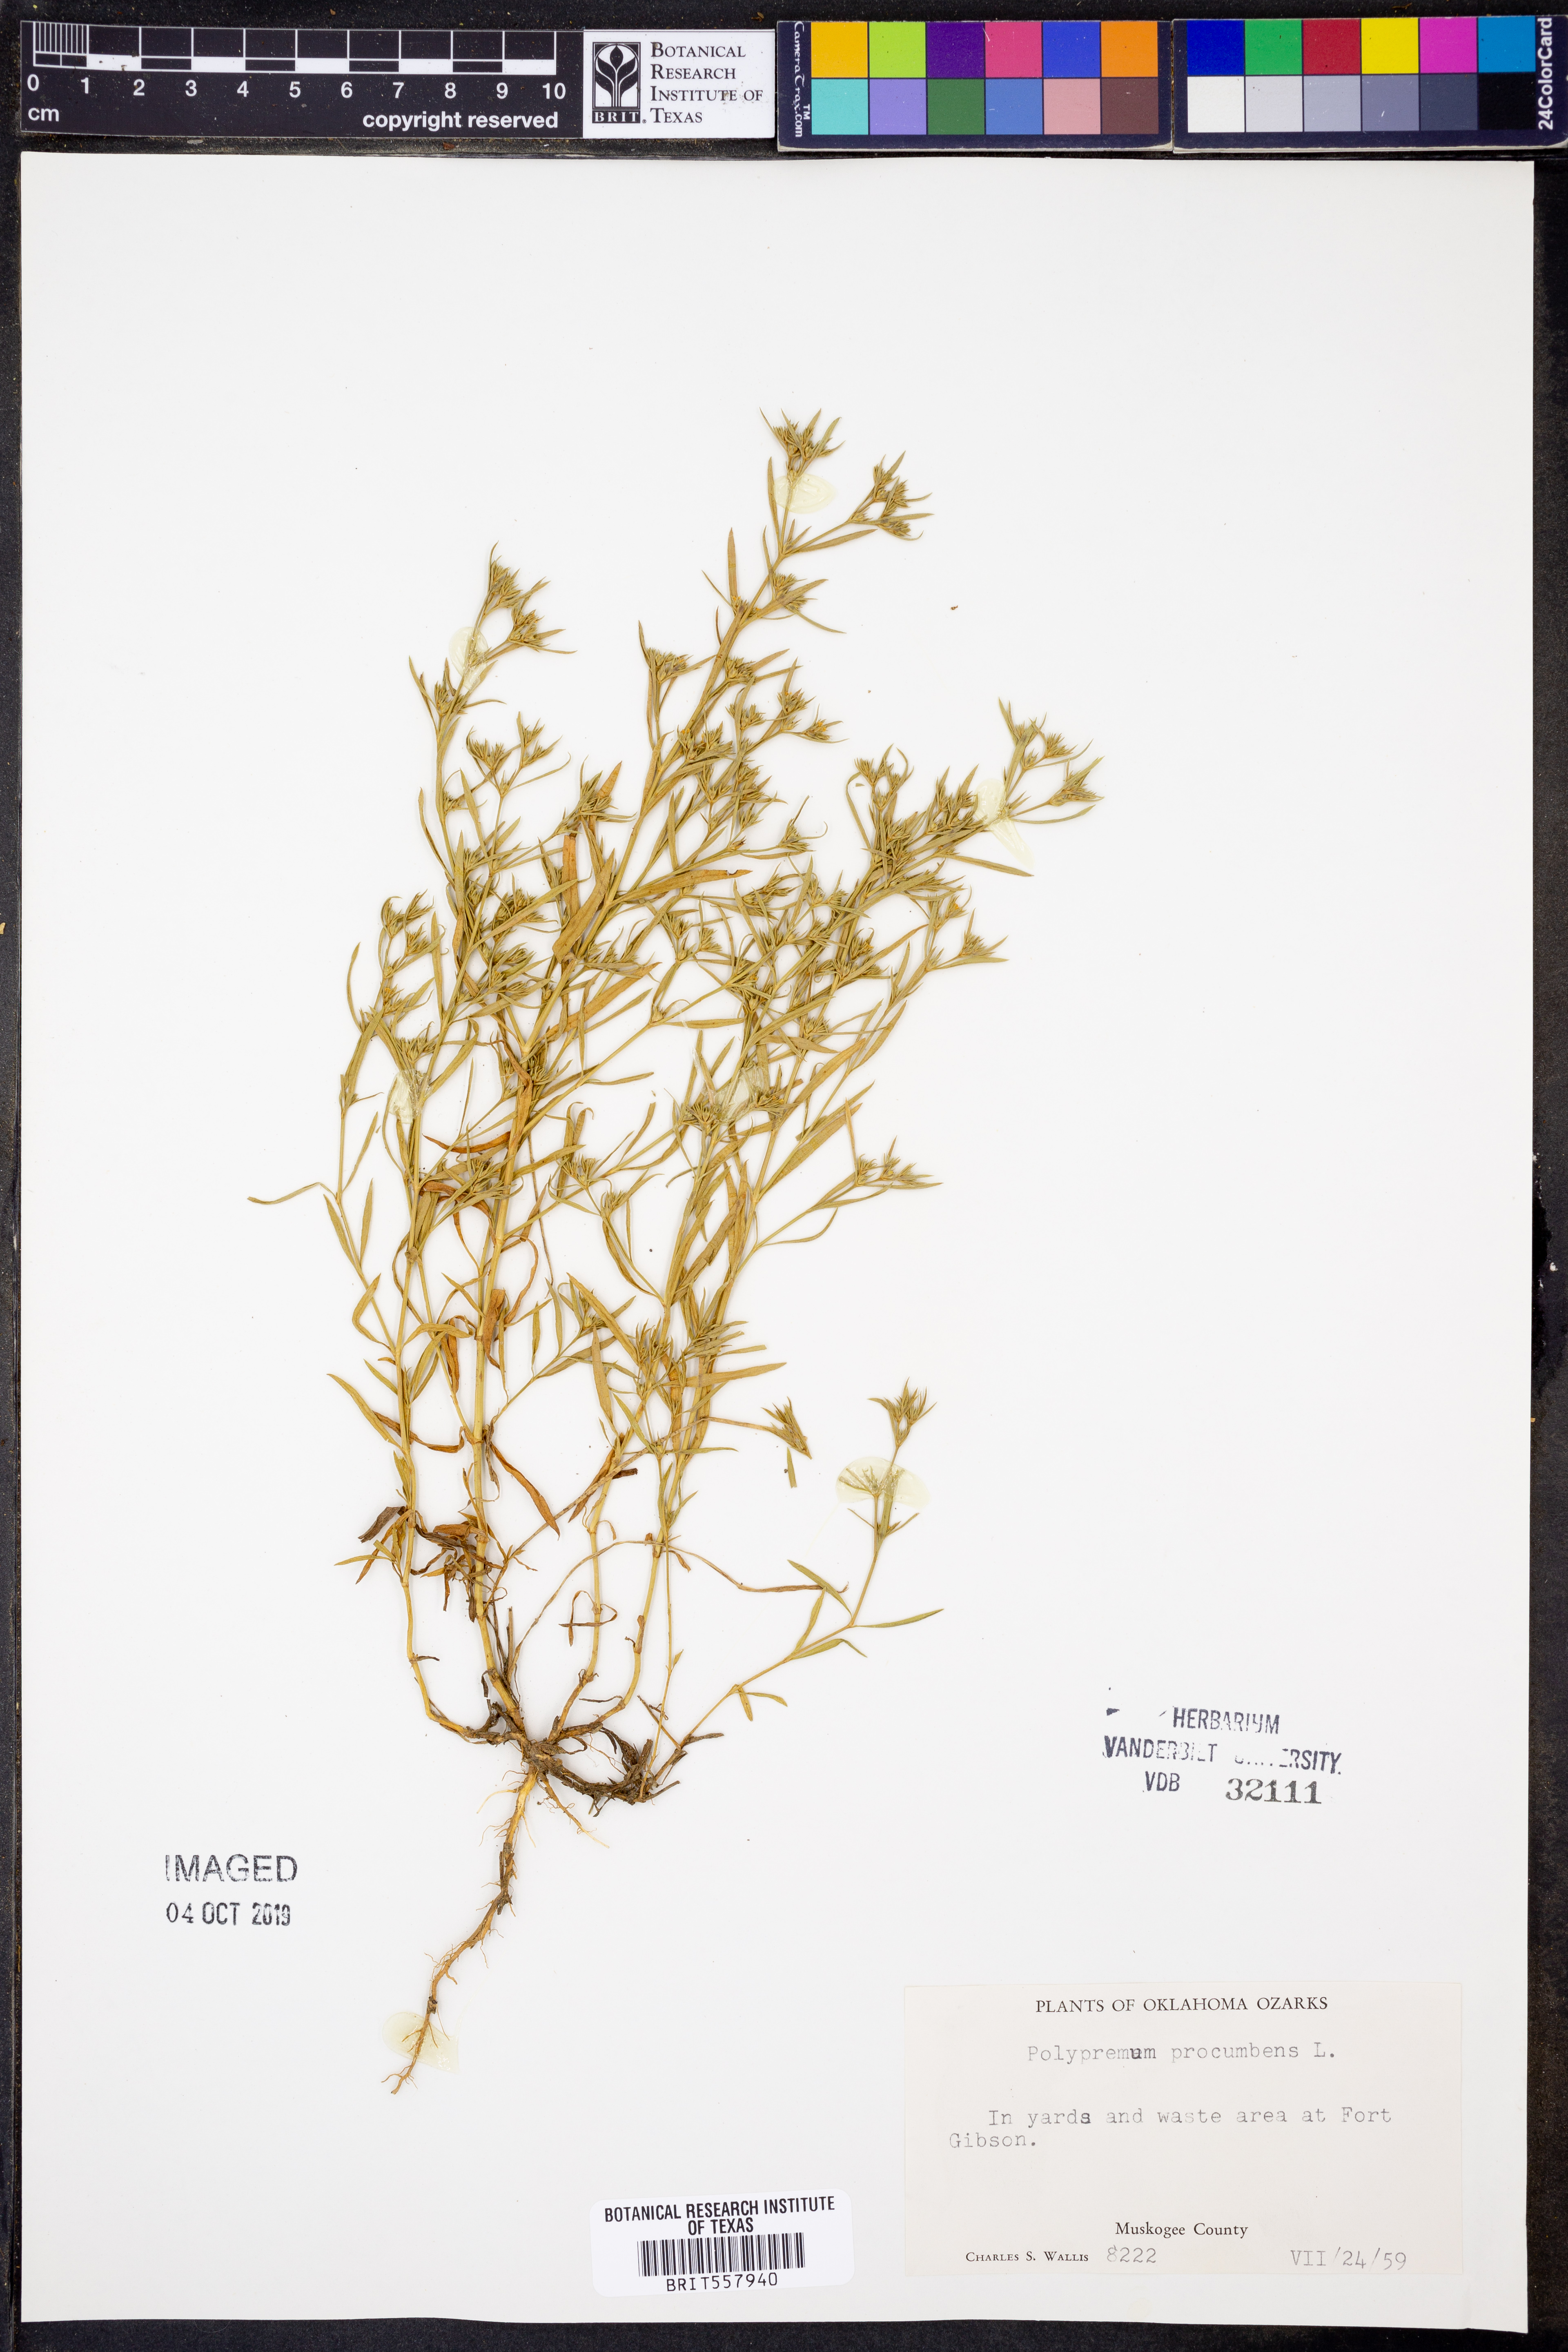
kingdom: Plantae
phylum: Tracheophyta
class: Magnoliopsida
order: Lamiales
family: Tetrachondraceae
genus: Polypremum
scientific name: Polypremum procumbens
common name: Juniper-leaf
